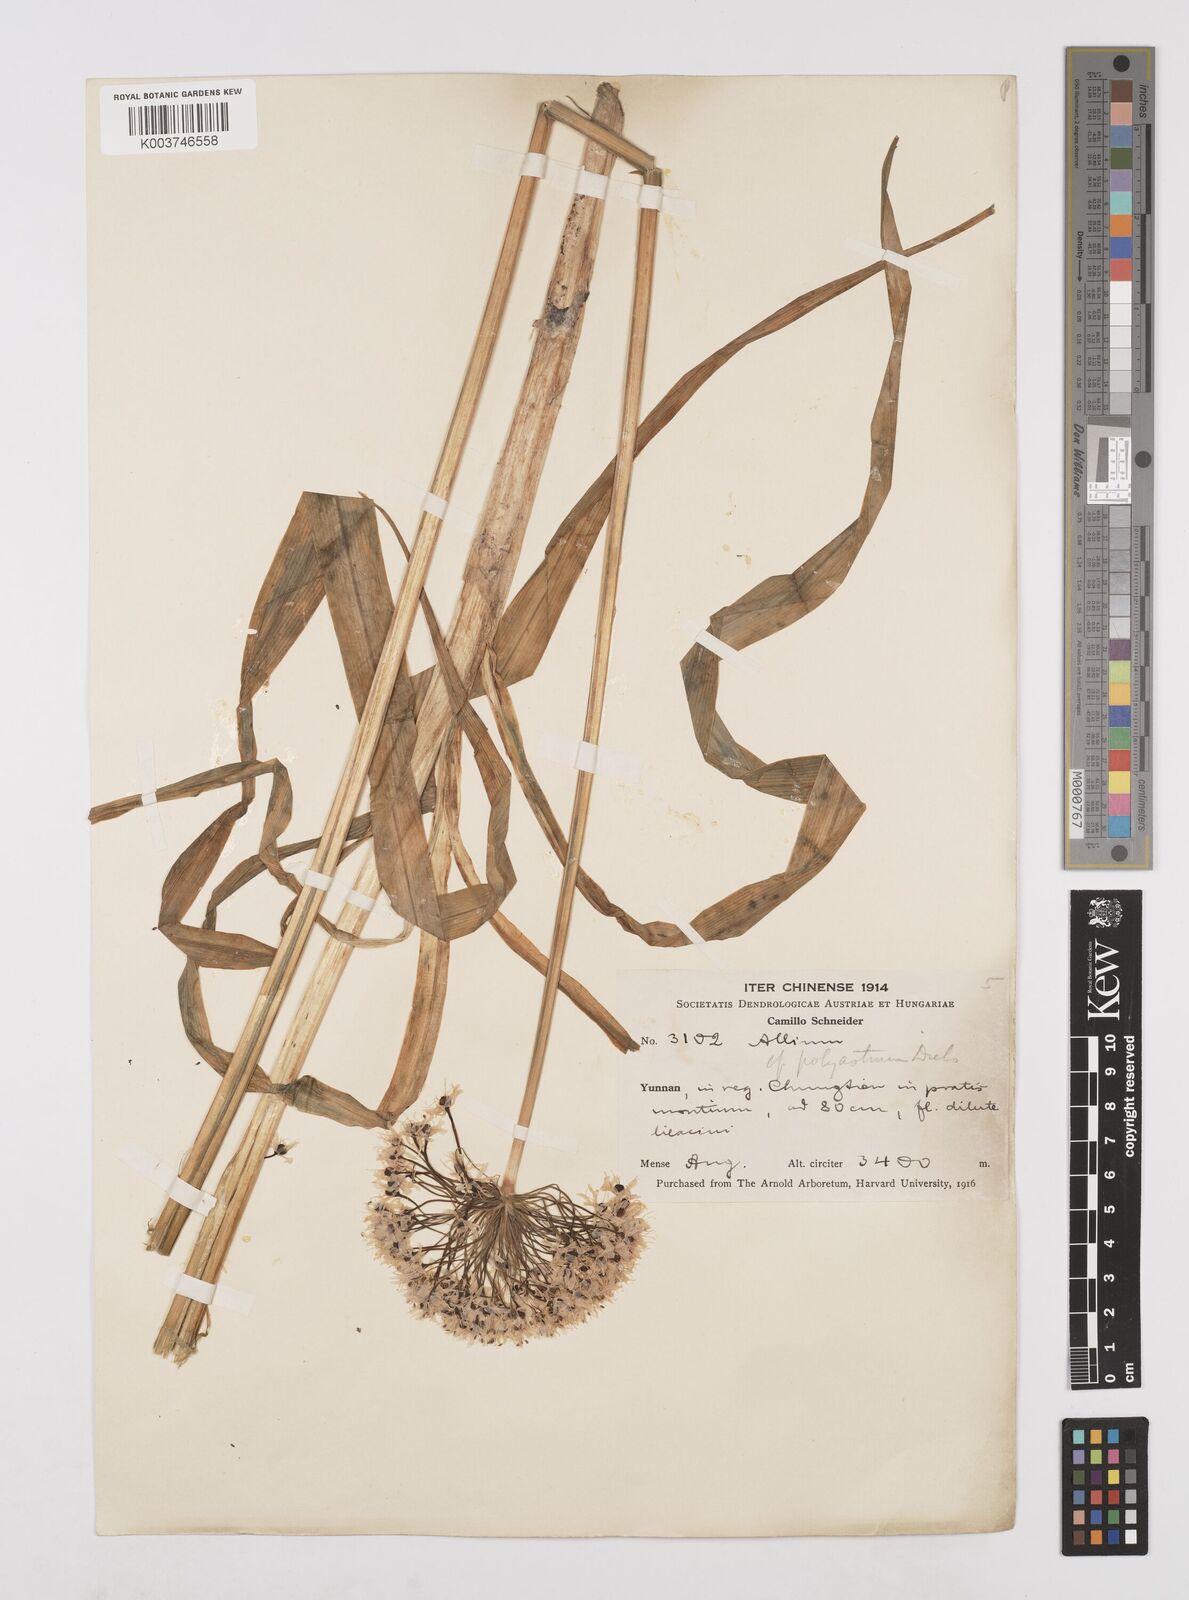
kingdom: Plantae
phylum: Tracheophyta
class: Liliopsida
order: Asparagales
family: Amaryllidaceae
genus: Allium
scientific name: Allium wallichii
